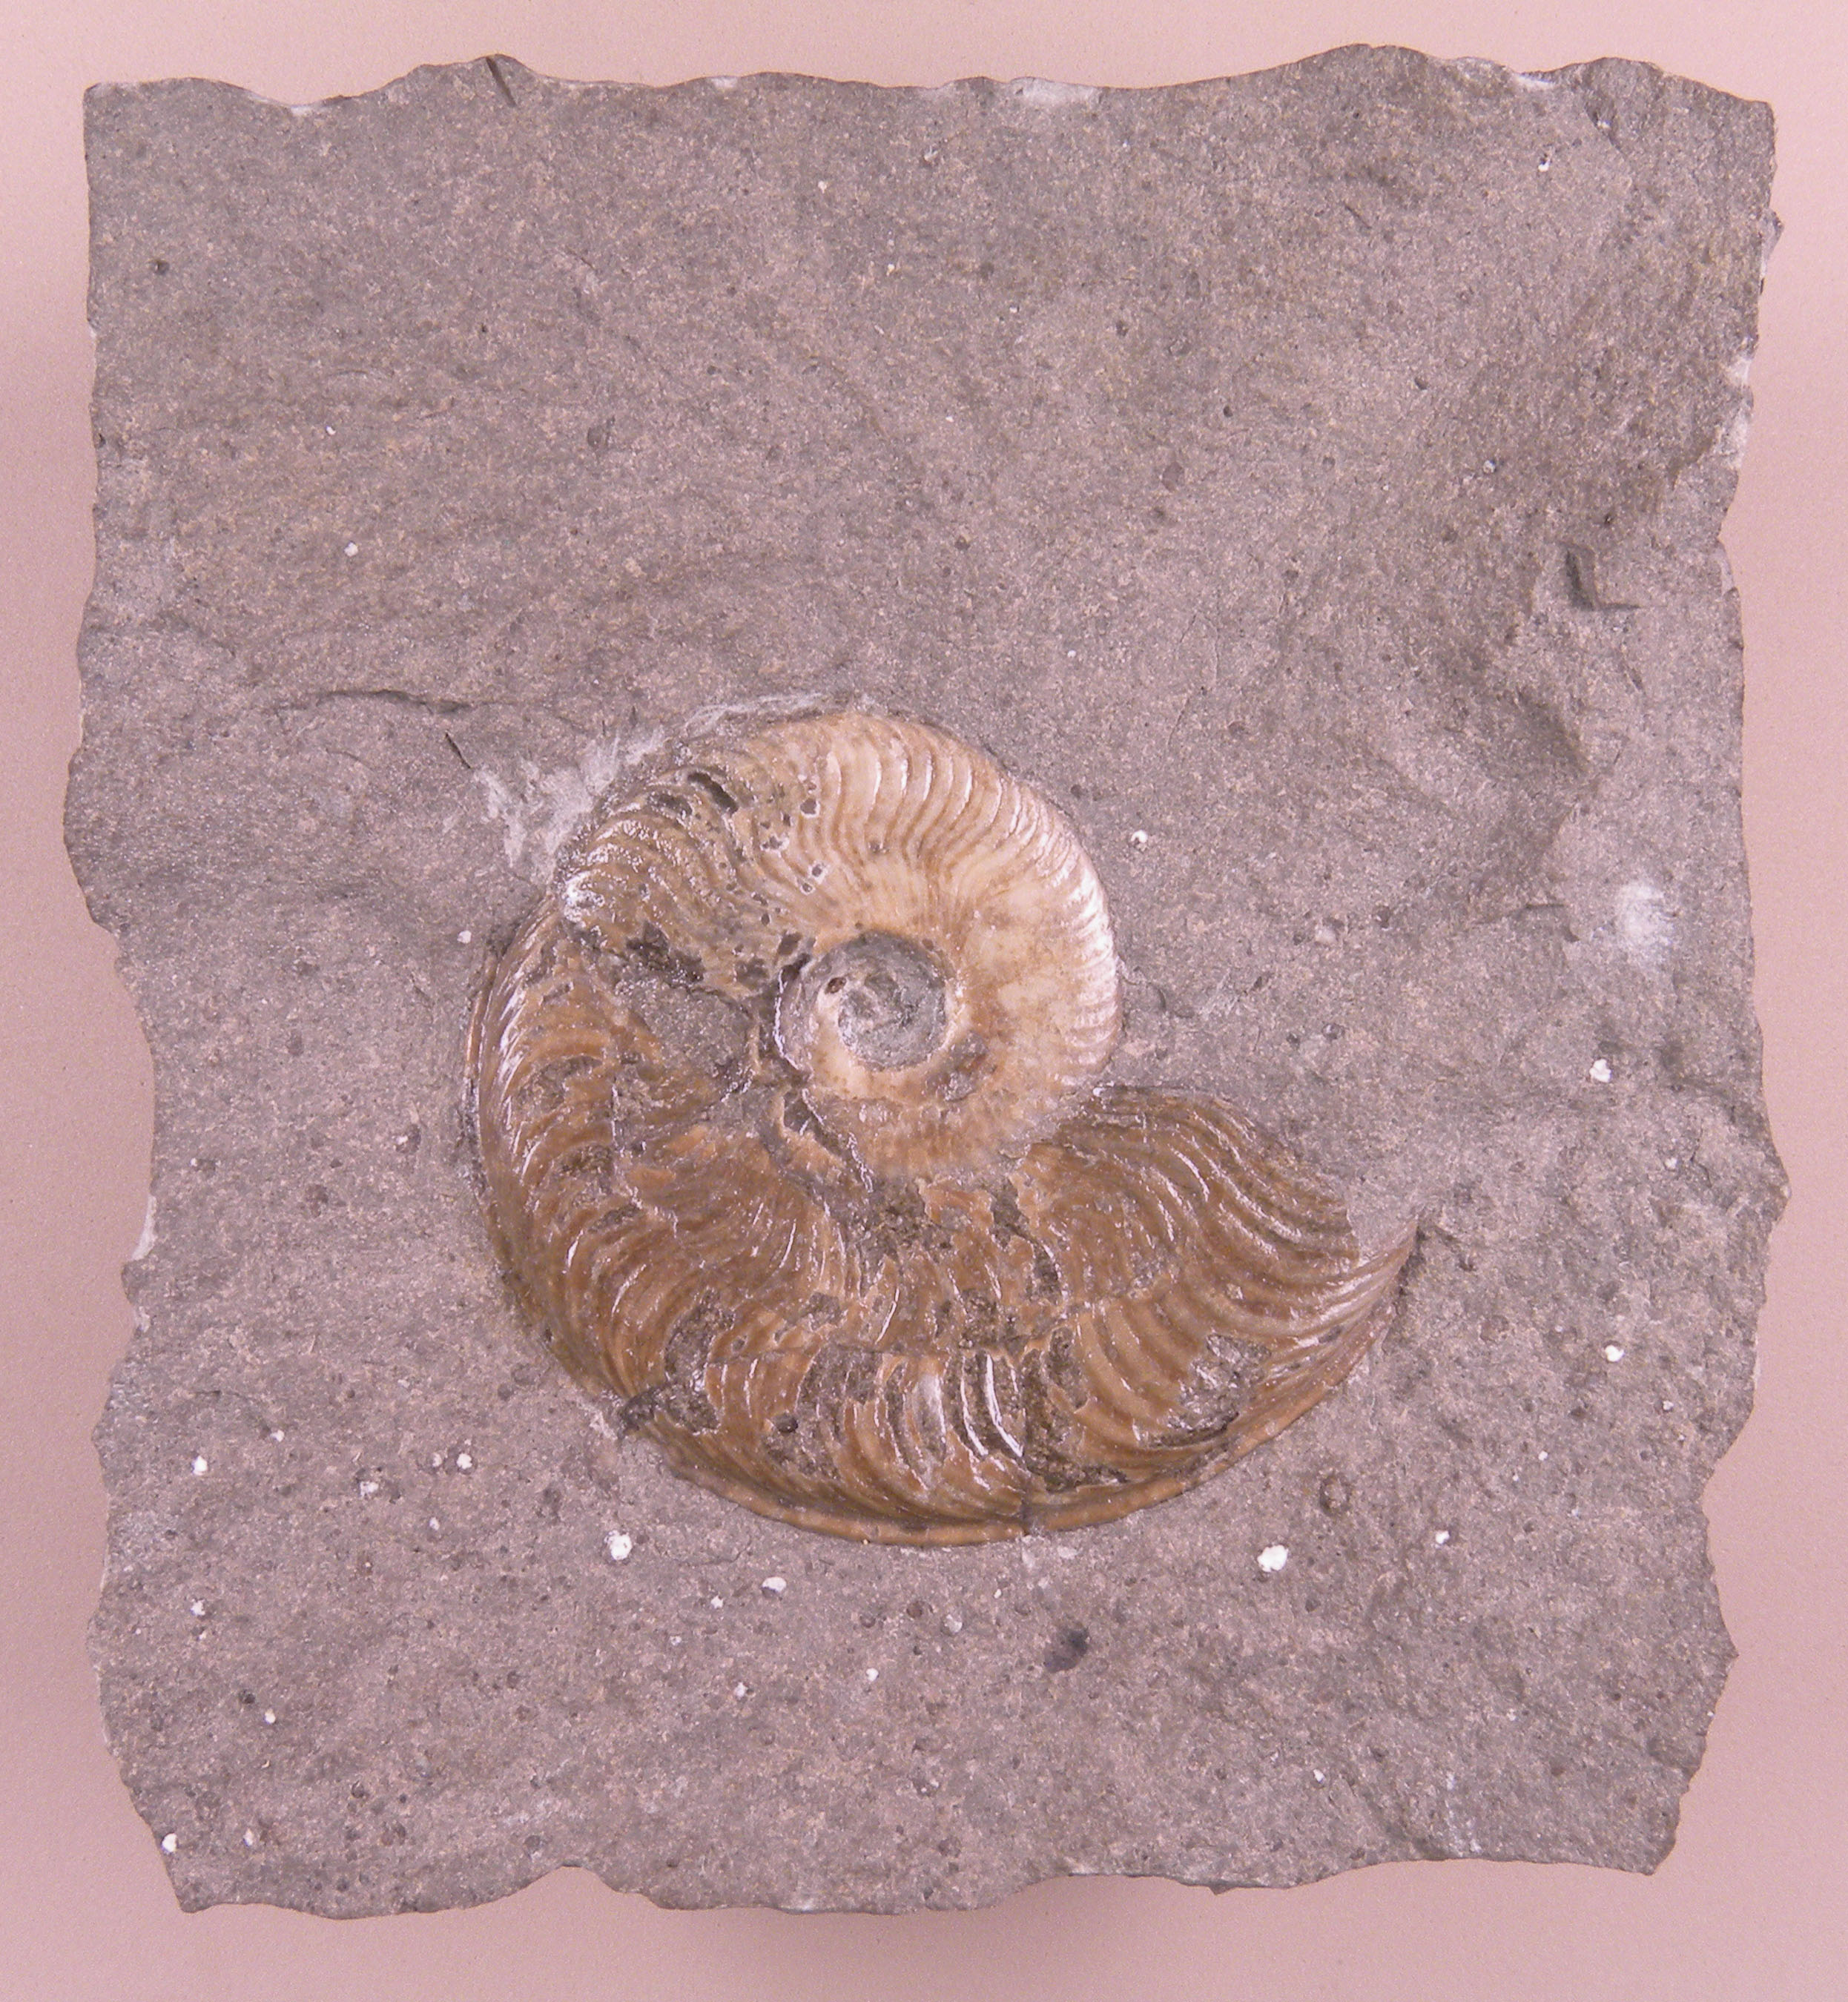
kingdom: Animalia
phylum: Mollusca
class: Cephalopoda
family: Hildoceratidae
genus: Eleganticeras
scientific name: Eleganticeras exaratum
